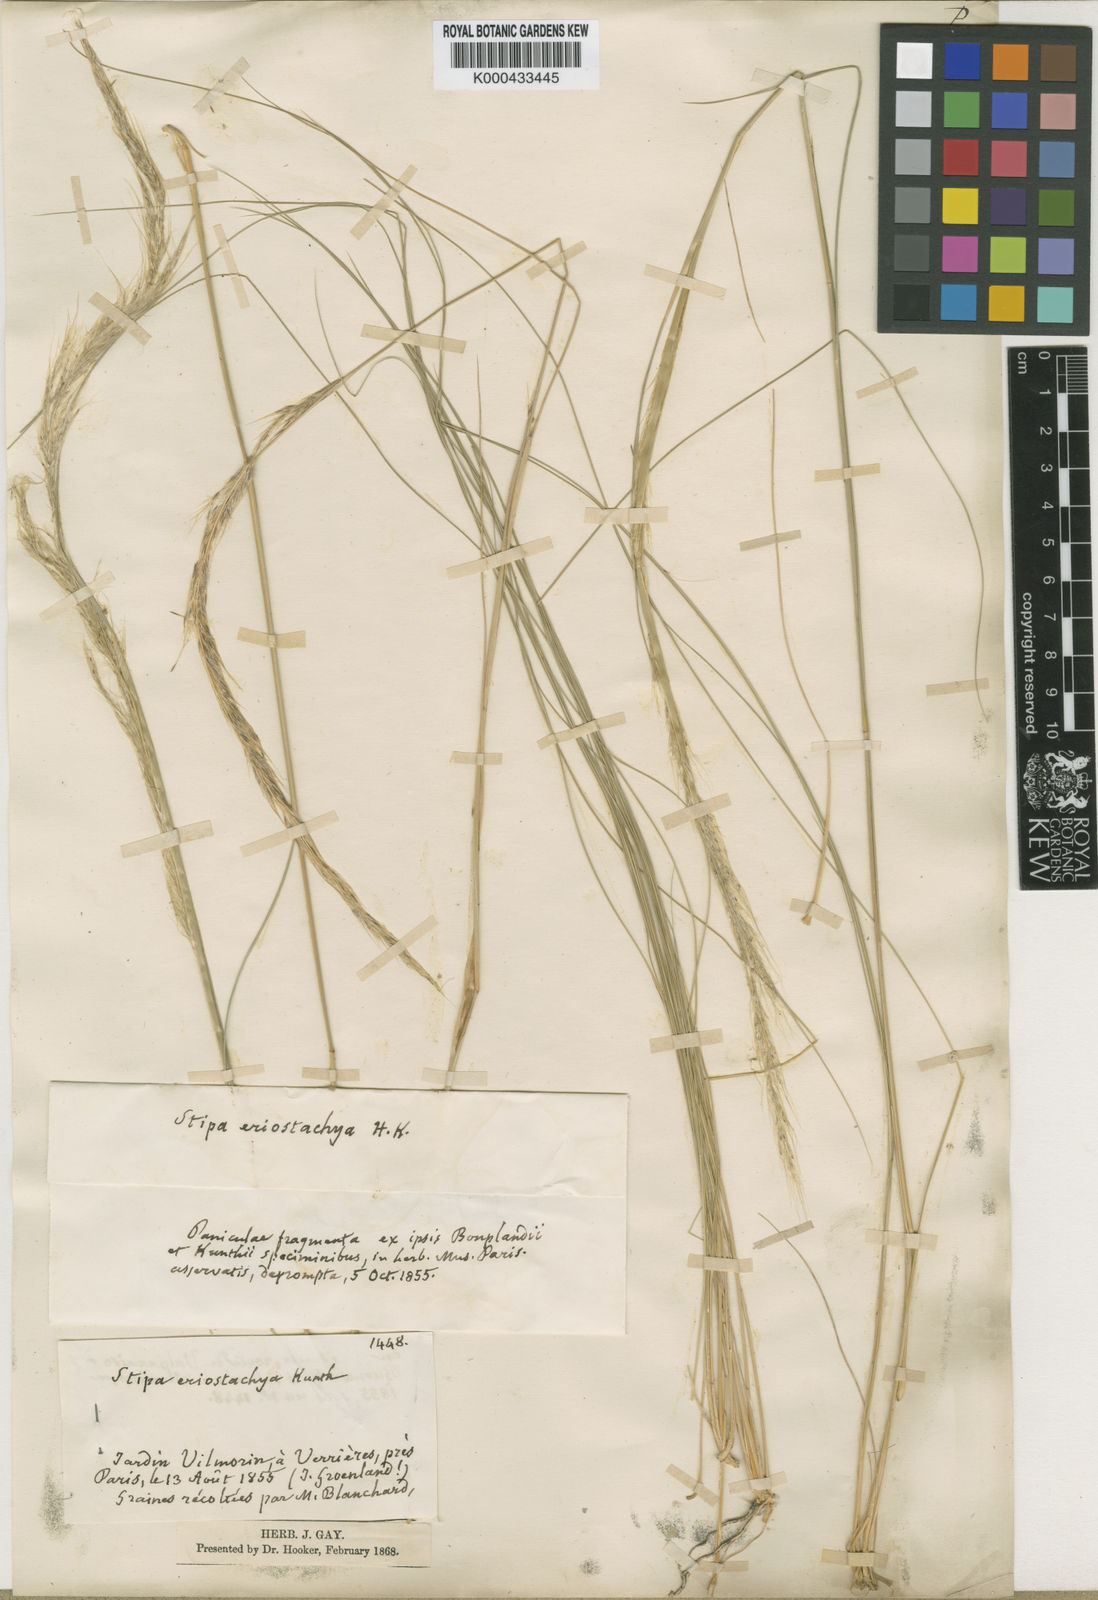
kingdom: Plantae
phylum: Tracheophyta
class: Liliopsida
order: Poales
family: Poaceae
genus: Jarava
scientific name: Jarava ichu
